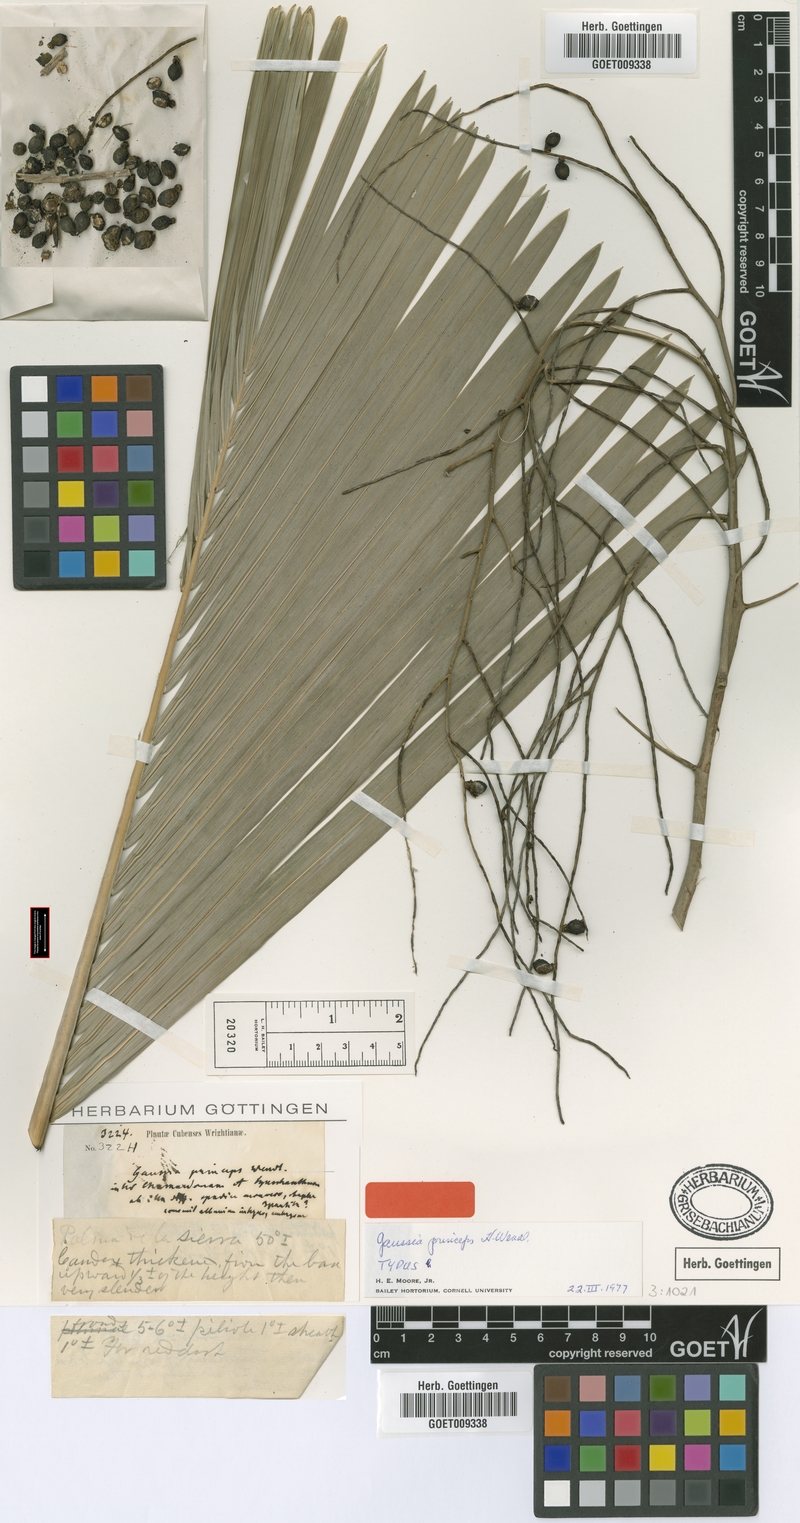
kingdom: Plantae
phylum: Tracheophyta
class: Liliopsida
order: Arecales
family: Arecaceae
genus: Gaussia
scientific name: Gaussia princeps
